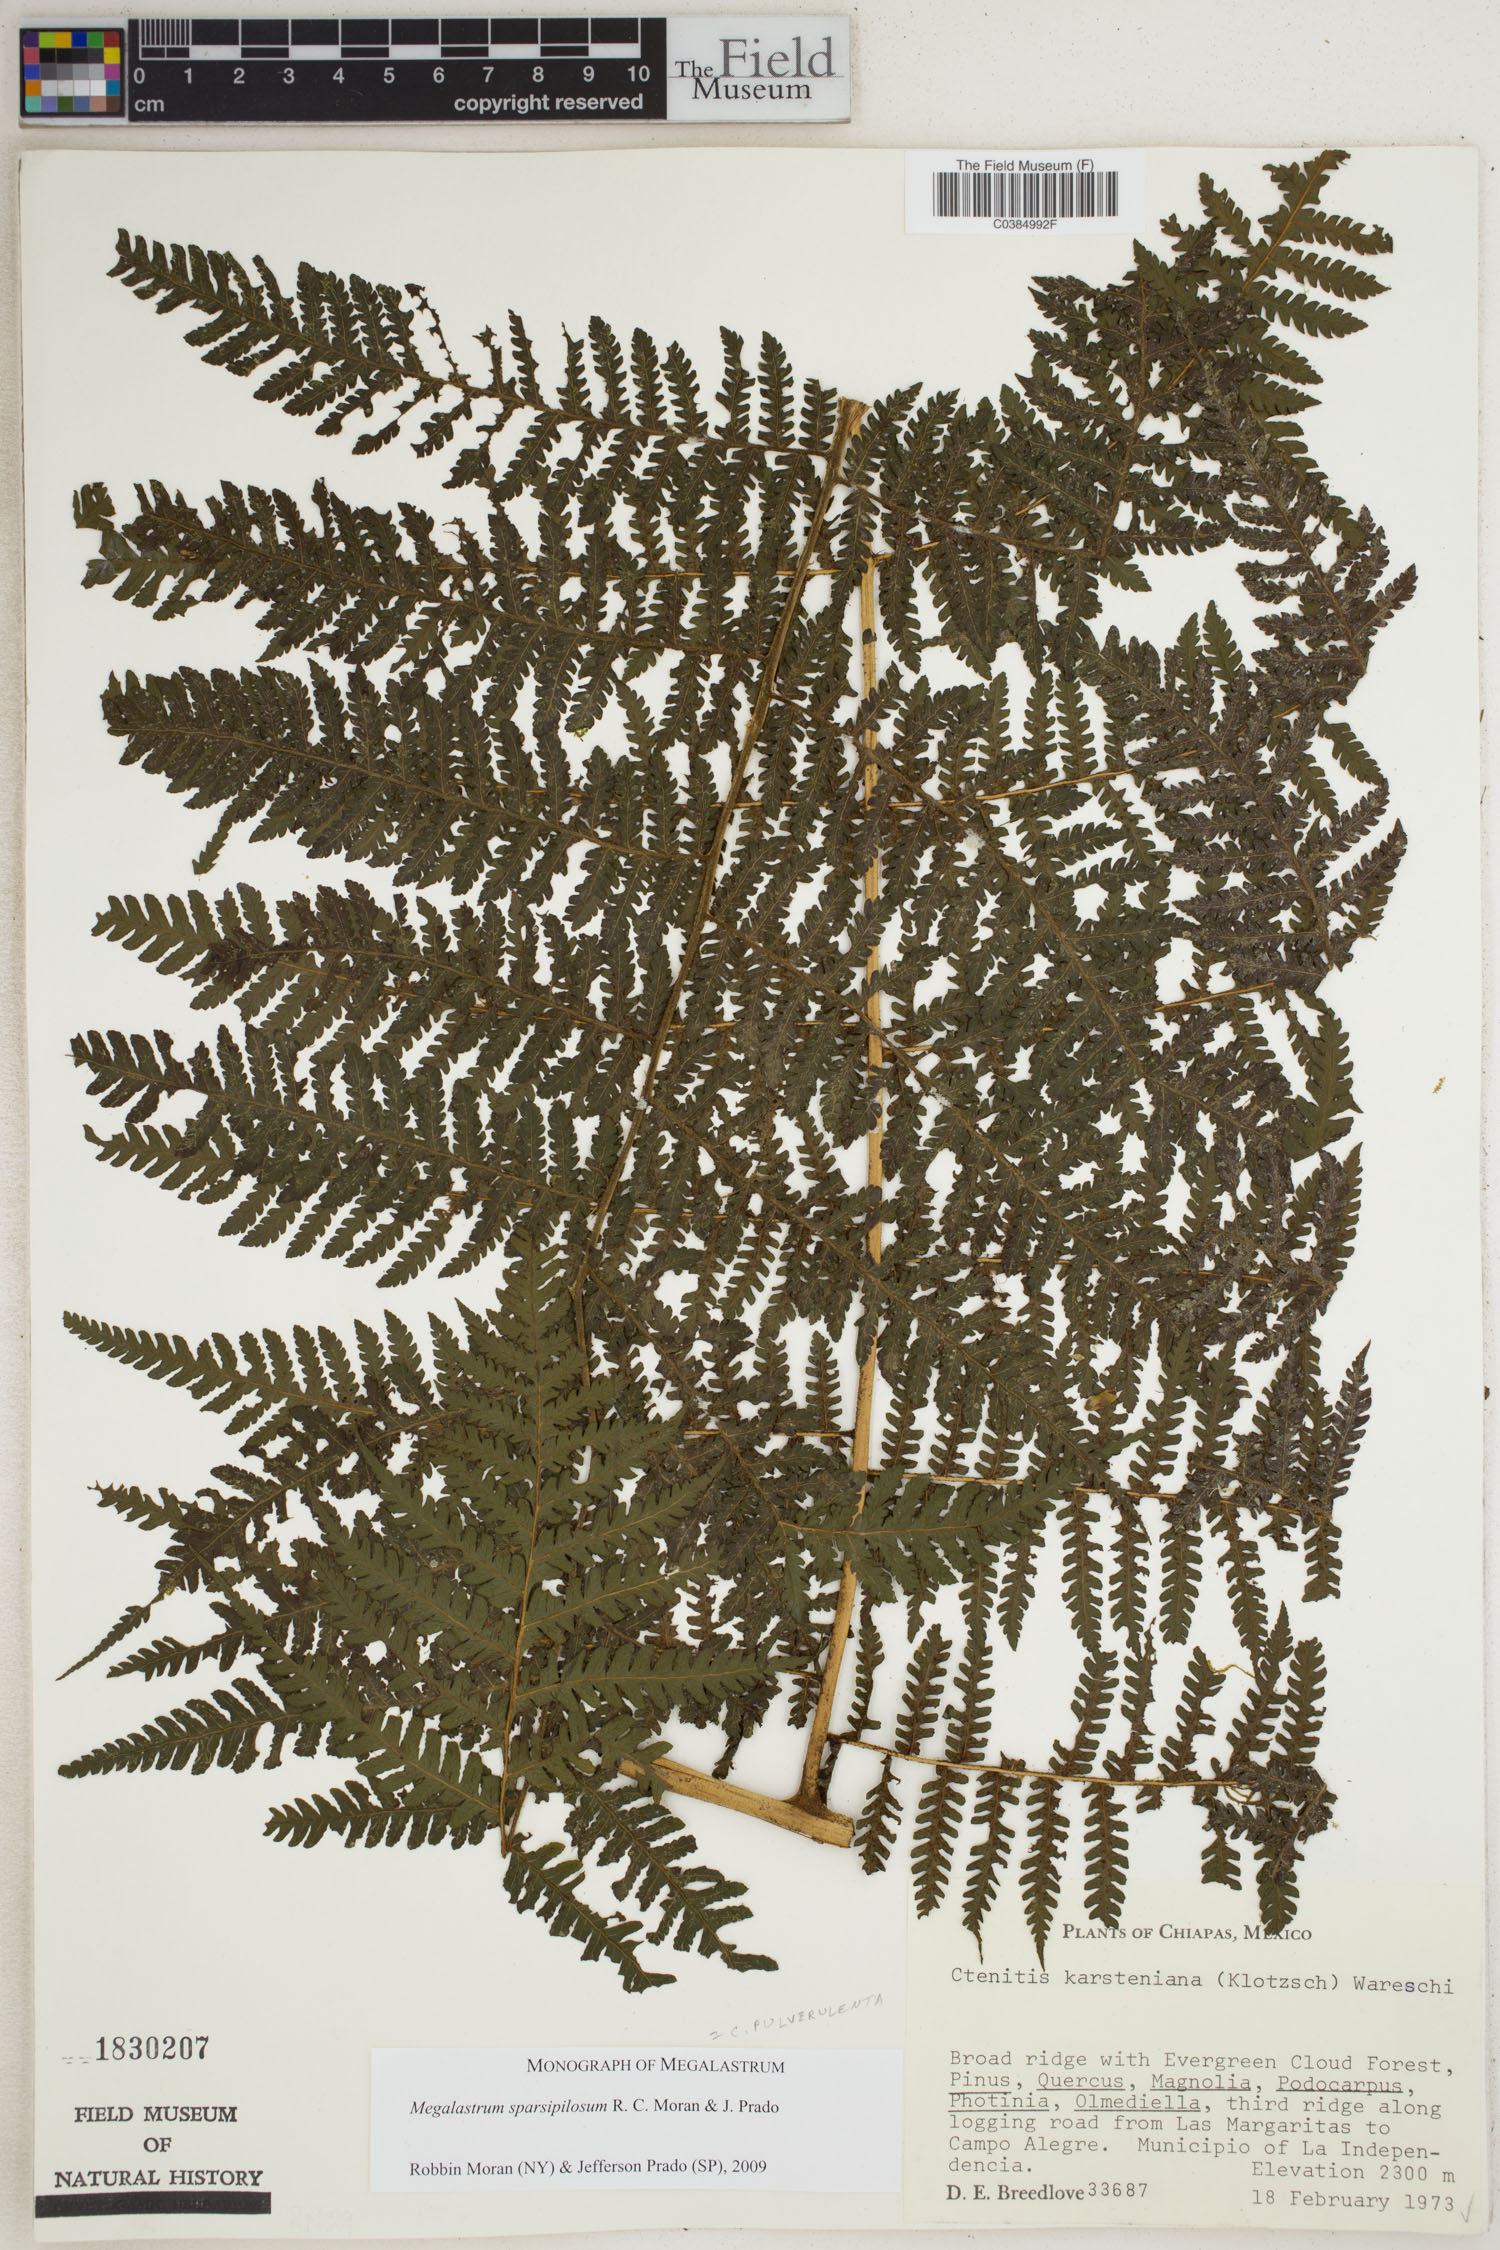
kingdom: Plantae
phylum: Tracheophyta
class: Polypodiopsida
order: Polypodiales
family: Dryopteridaceae
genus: Megalastrum
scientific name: Megalastrum sparsipilosum
